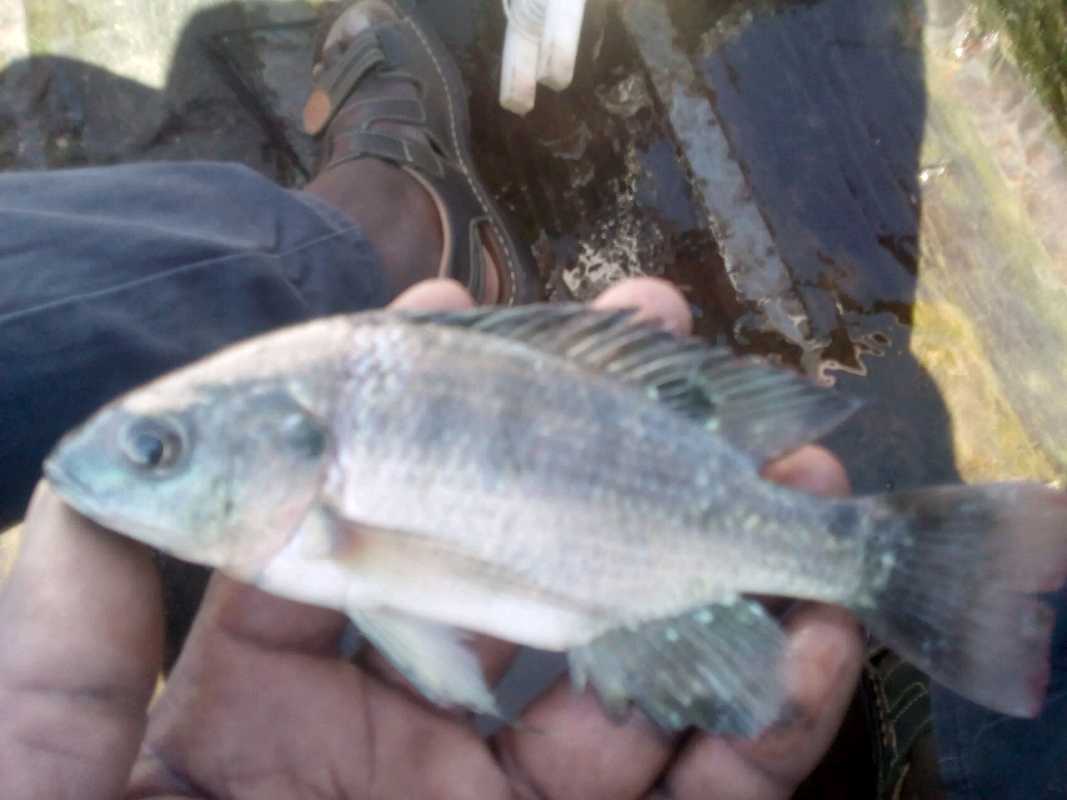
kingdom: Animalia
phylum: Chordata
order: Perciformes
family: Cichlidae
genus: Oreochromis
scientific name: Oreochromis esculentus
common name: Carp
